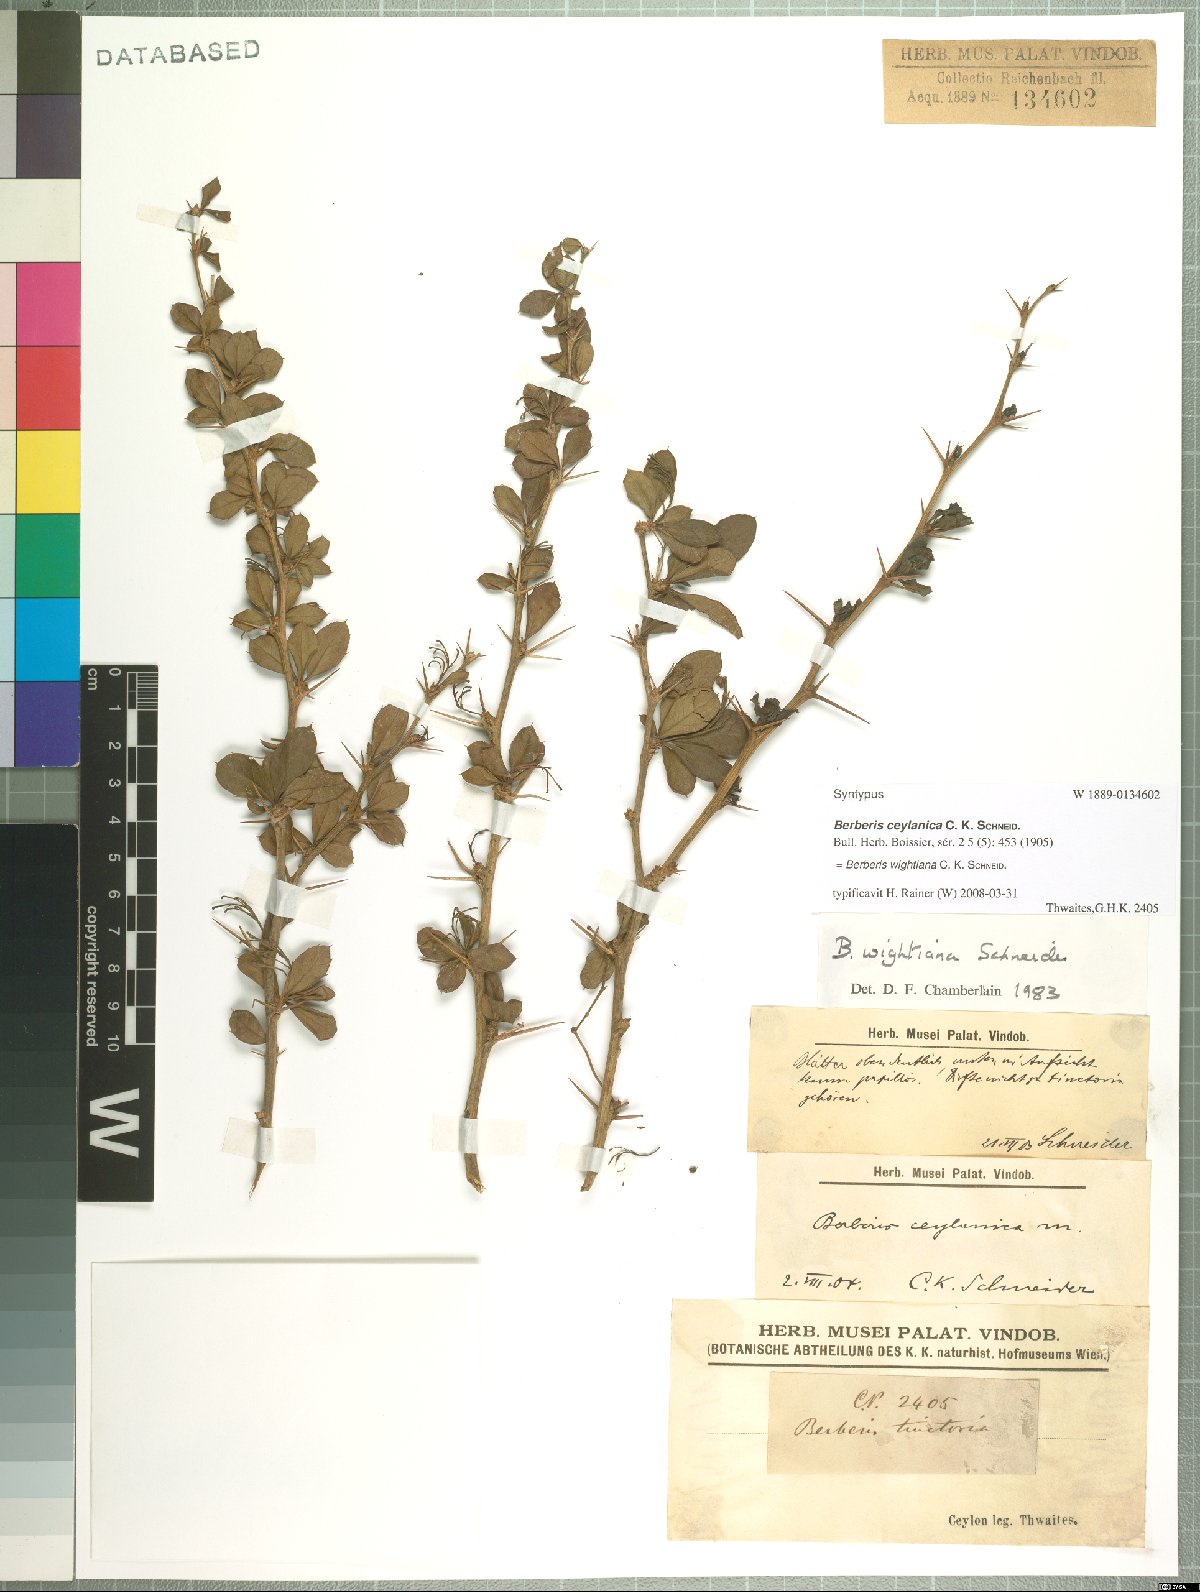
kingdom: Plantae
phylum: Tracheophyta
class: Magnoliopsida
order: Ranunculales
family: Berberidaceae
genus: Berberis
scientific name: Berberis wightiana
